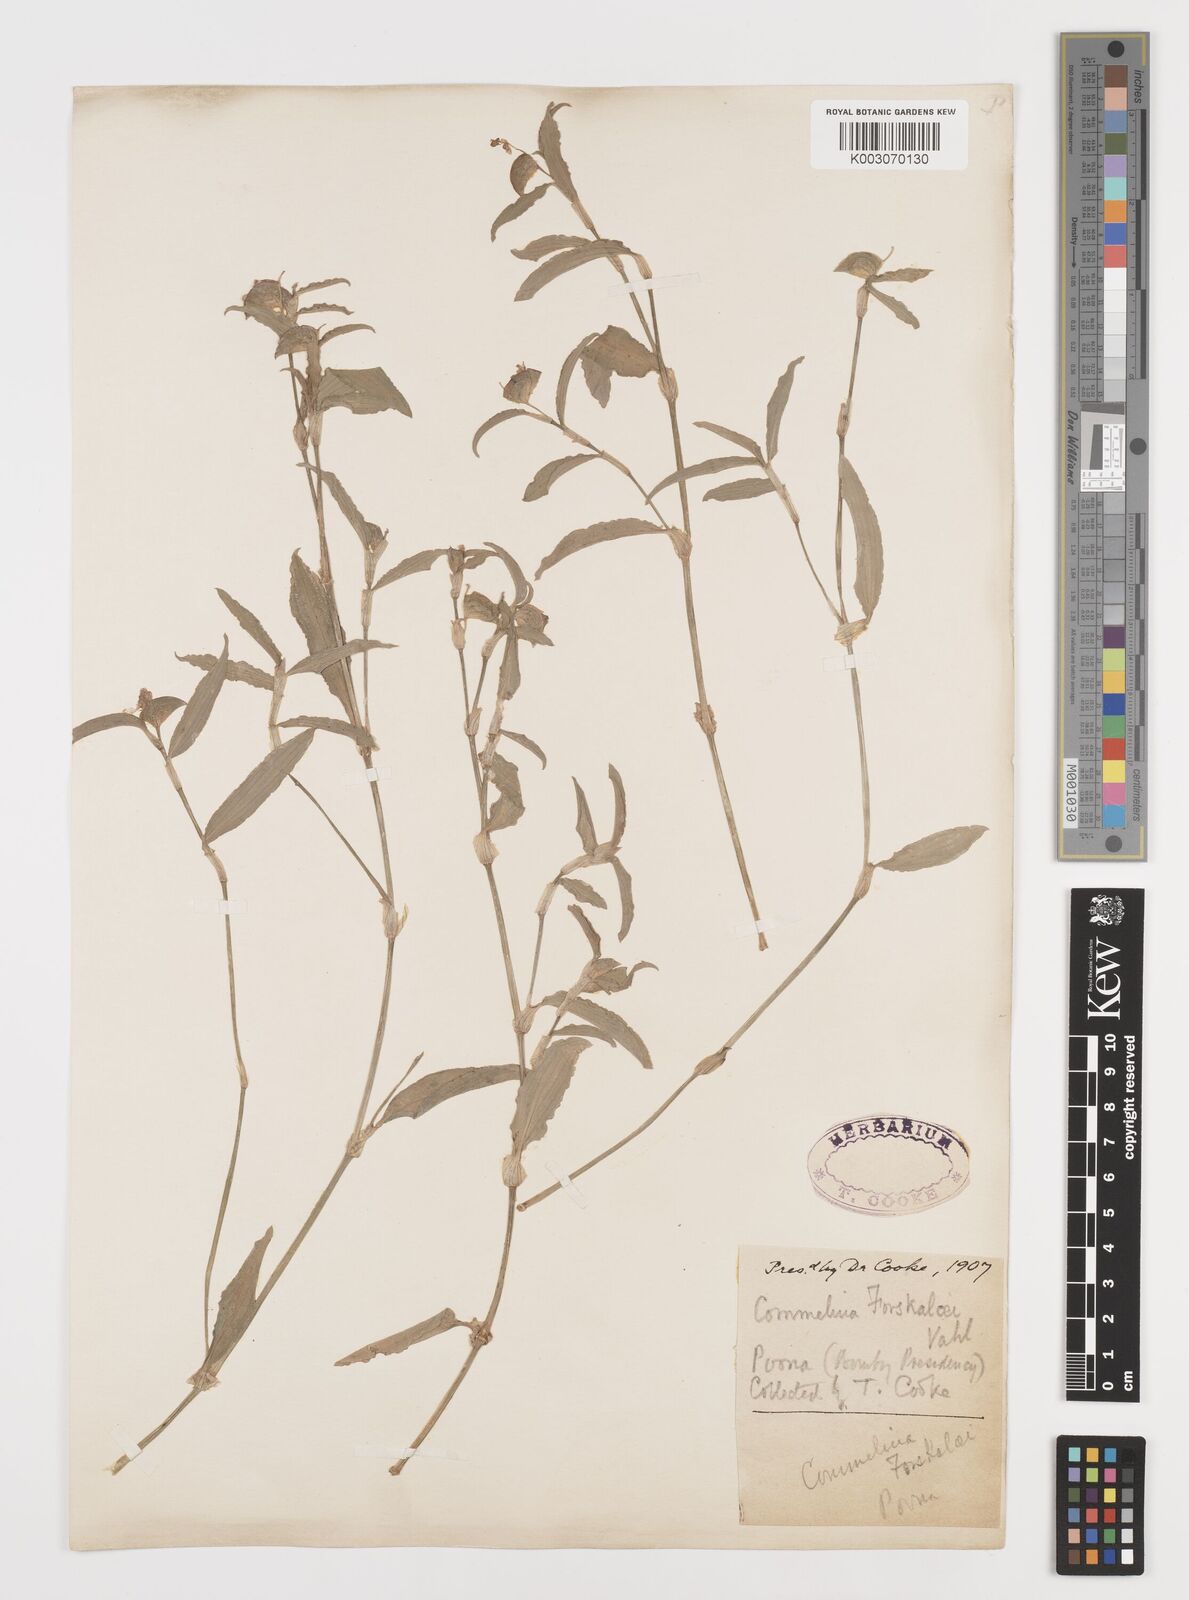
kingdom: Plantae
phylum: Tracheophyta
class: Liliopsida
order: Commelinales
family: Commelinaceae
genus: Commelina
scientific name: Commelina forskaolii
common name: Rat's ear
